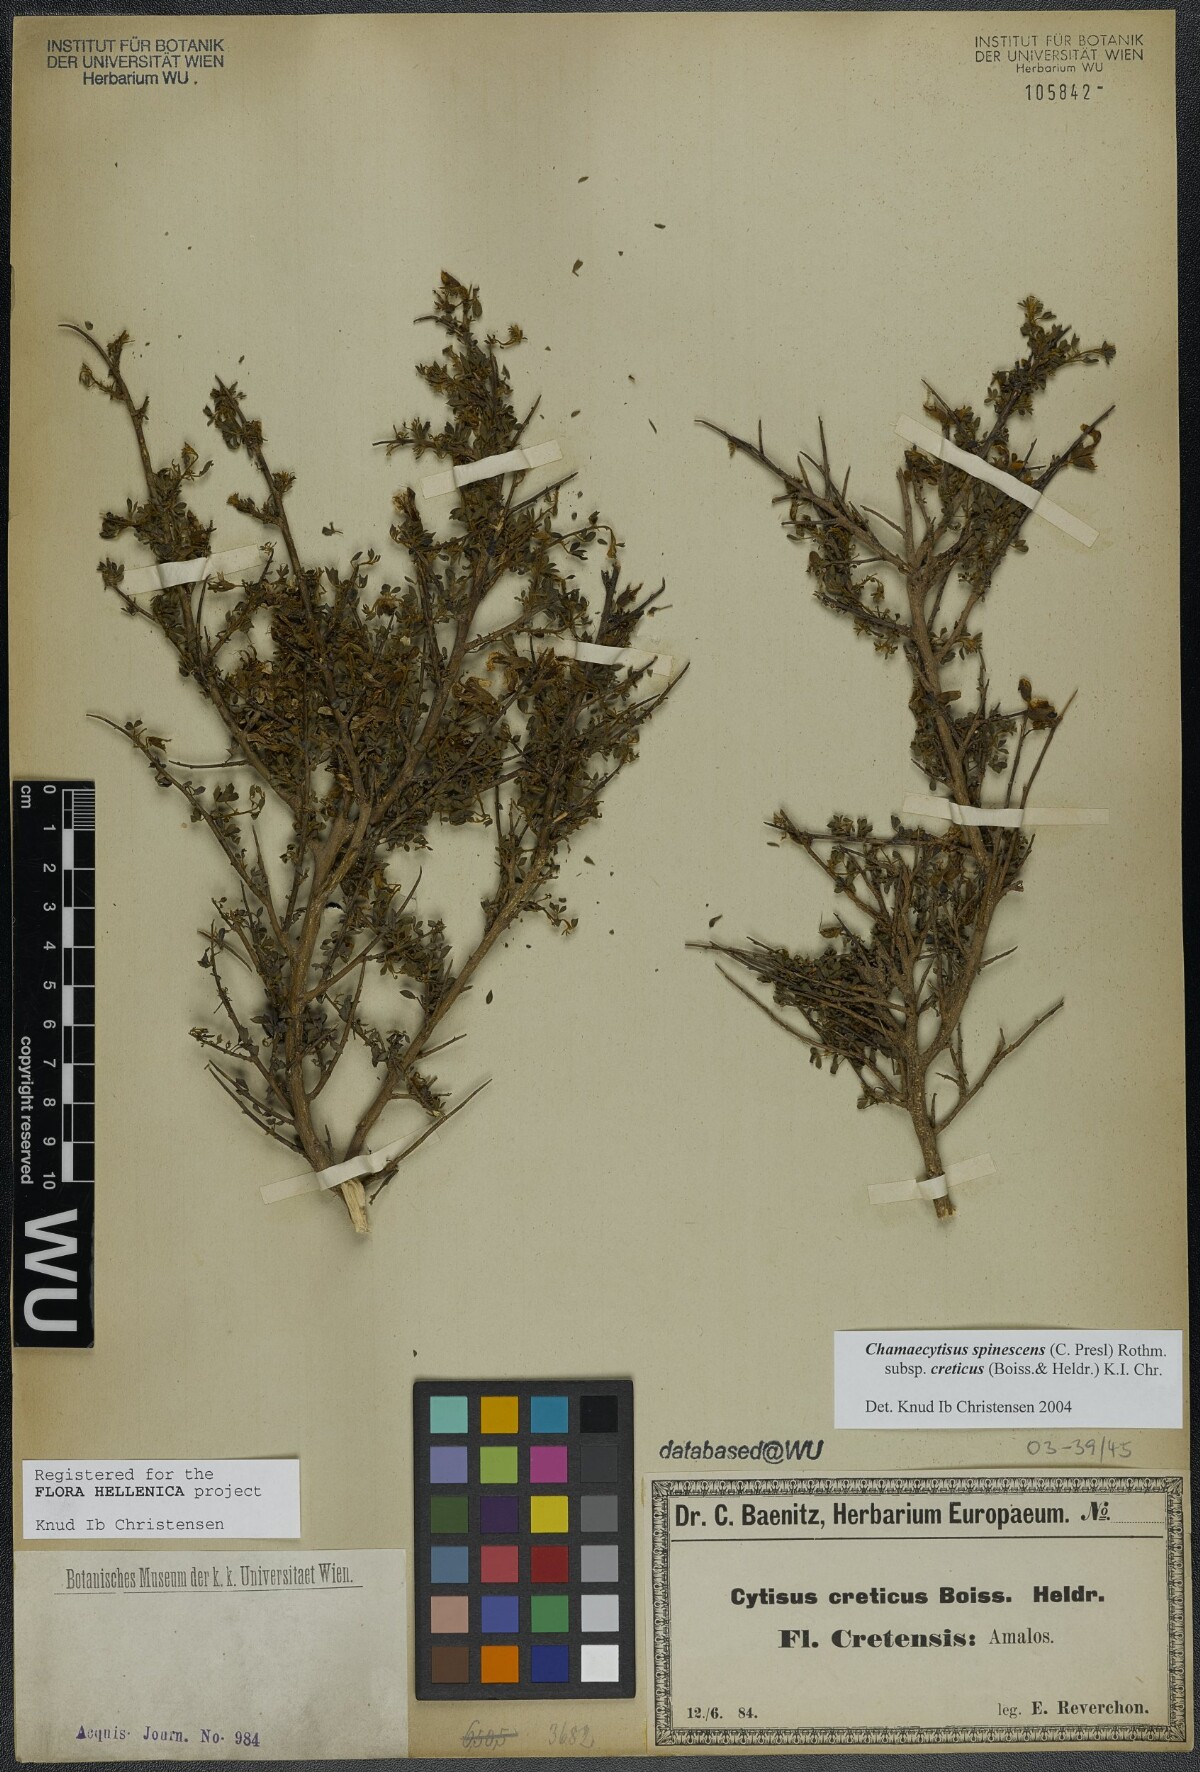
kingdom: Plantae
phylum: Tracheophyta
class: Magnoliopsida
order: Fabales
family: Fabaceae
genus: Chamaecytisus
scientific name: Chamaecytisus spinescens
